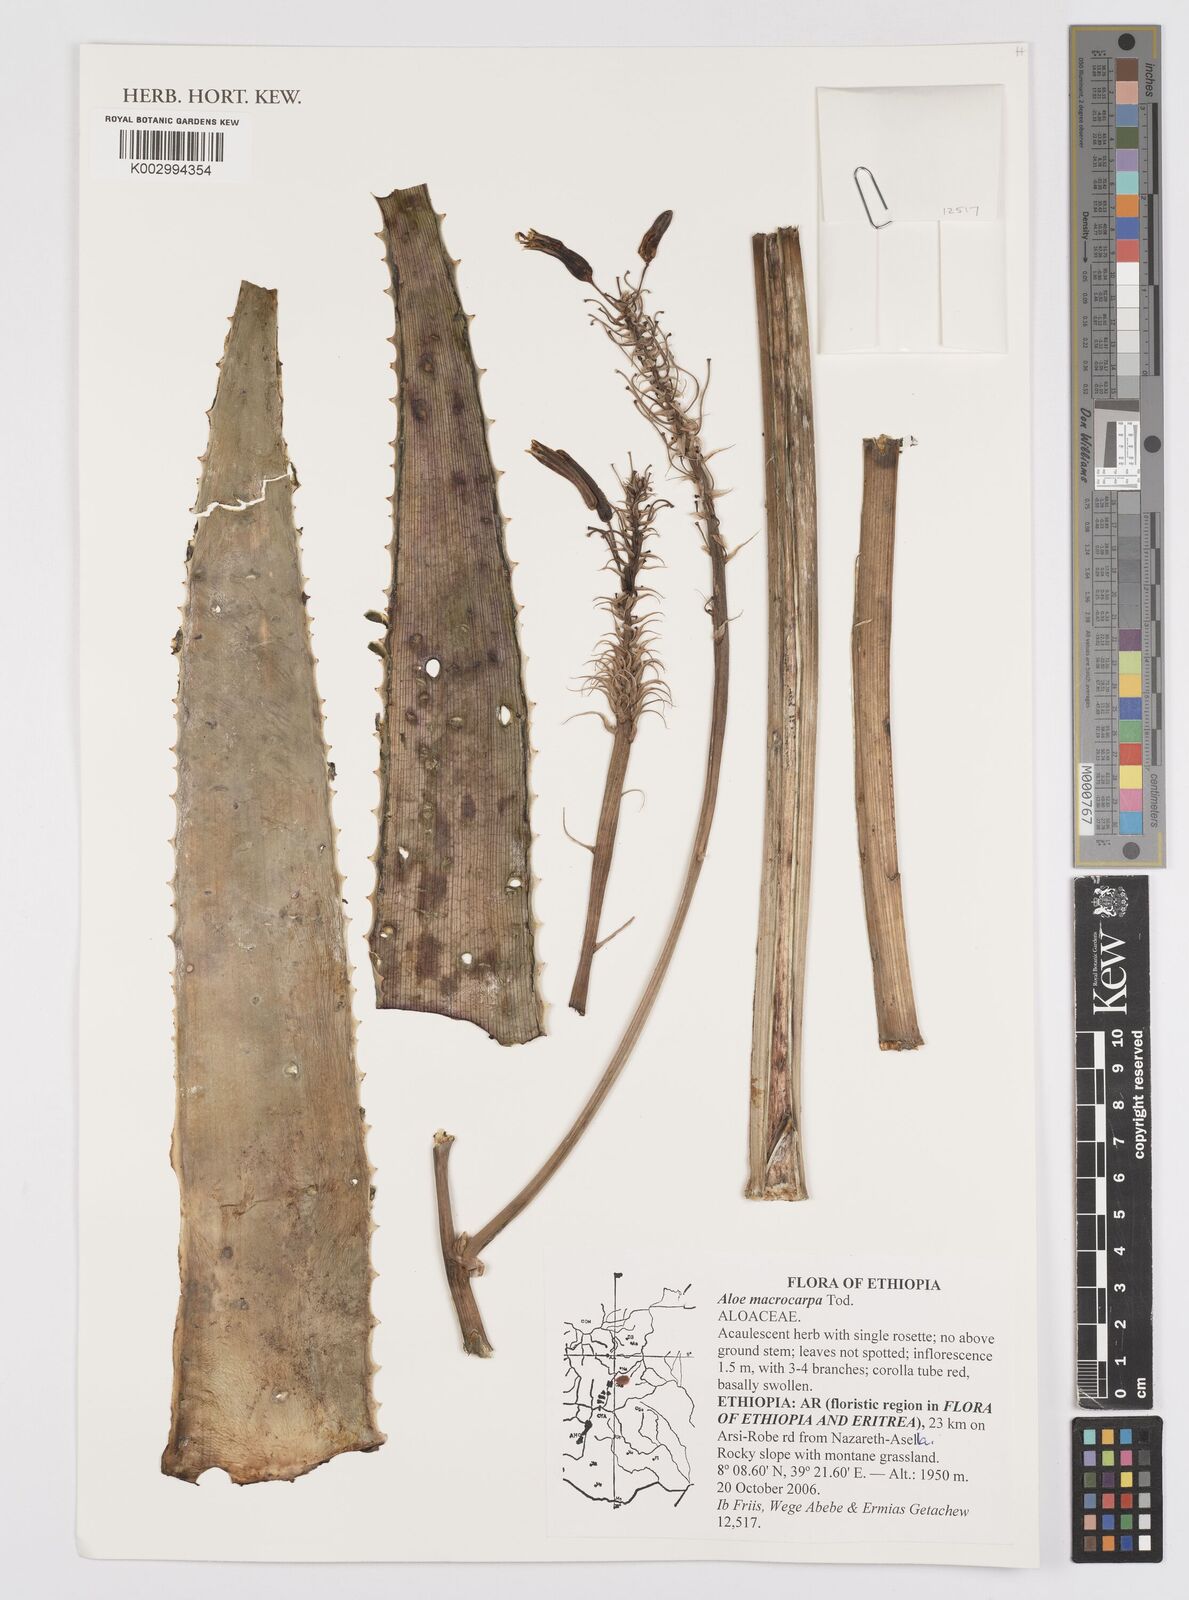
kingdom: Plantae
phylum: Tracheophyta
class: Liliopsida
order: Asparagales
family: Asphodelaceae
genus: Aloe
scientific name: Aloe macrocarpa
